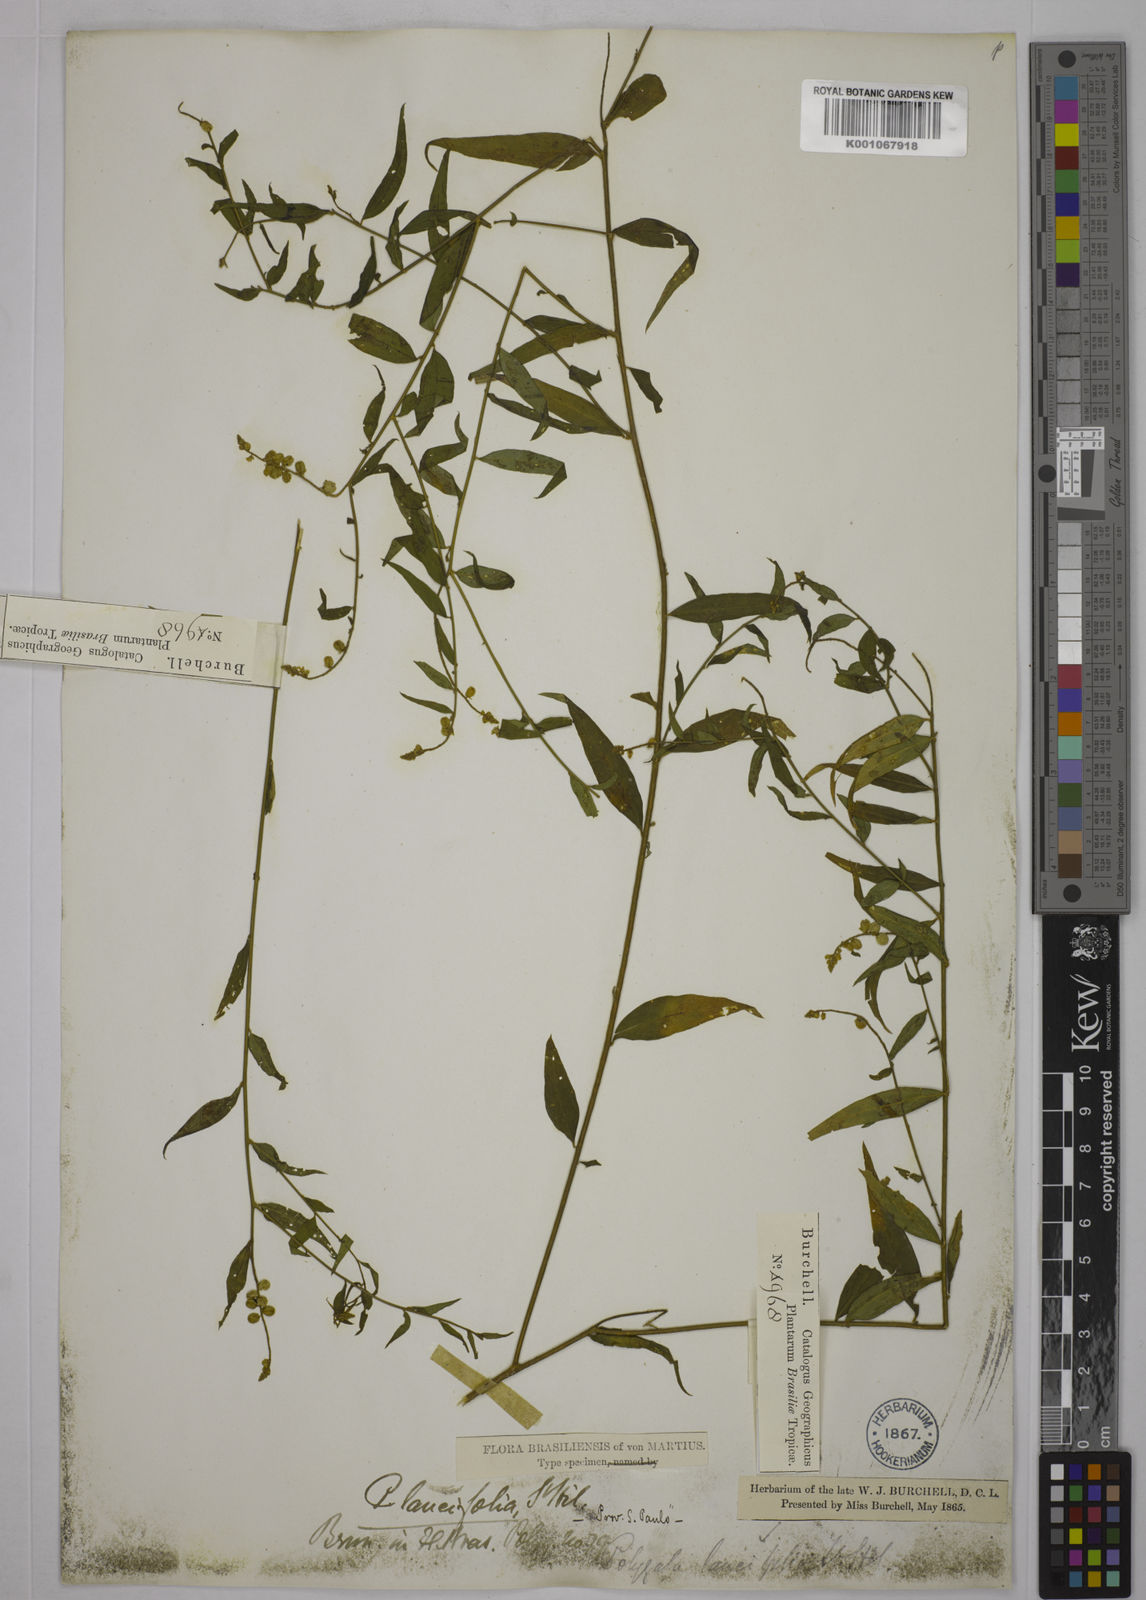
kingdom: Plantae
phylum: Tracheophyta
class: Magnoliopsida
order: Fabales
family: Polygalaceae
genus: Polygala
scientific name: Polygala lancifolia
